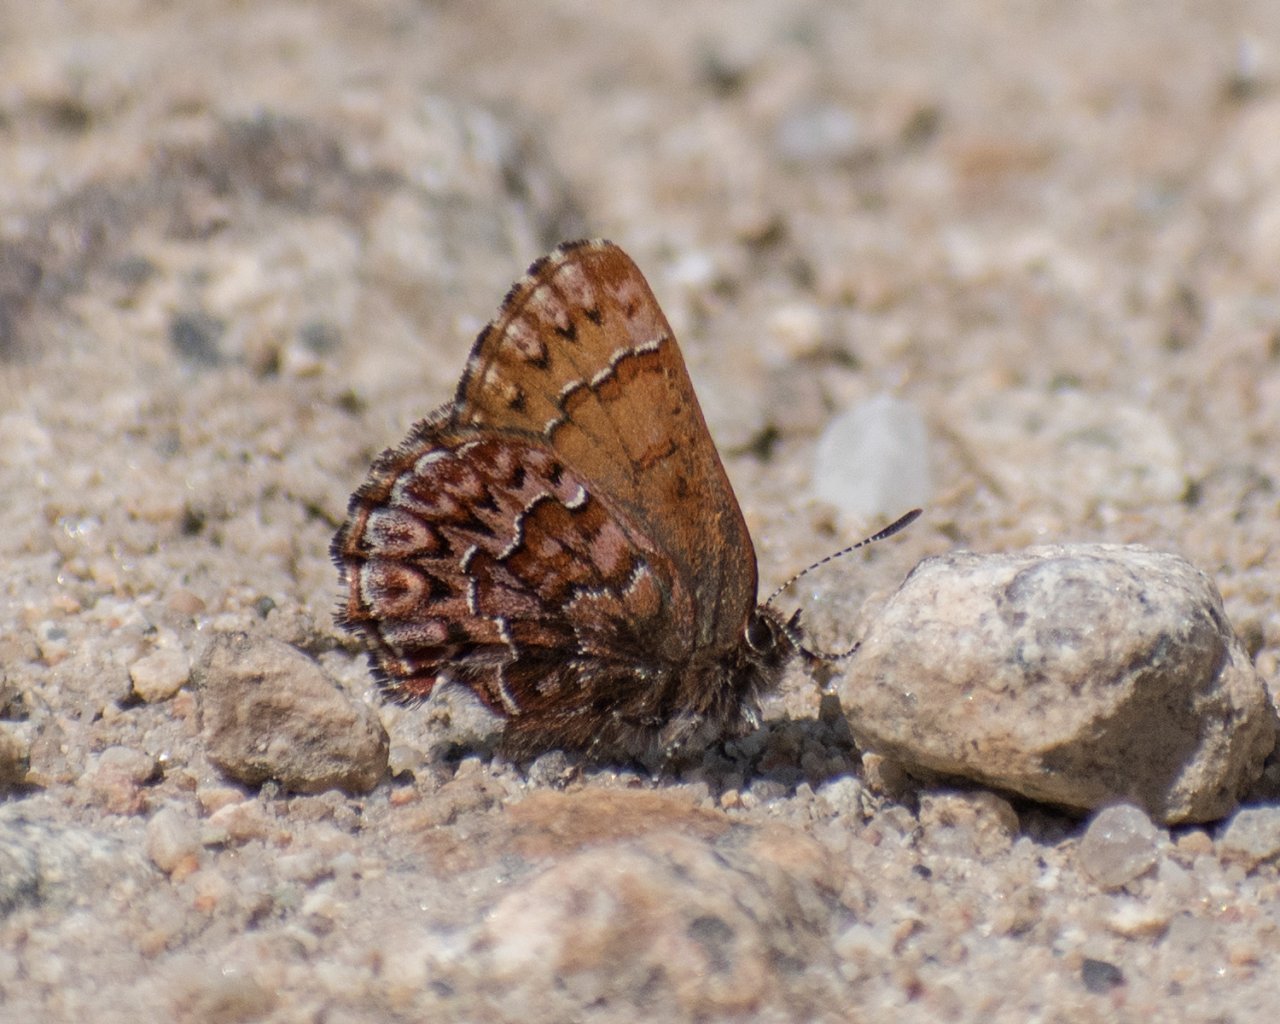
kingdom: Animalia
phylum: Arthropoda
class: Insecta
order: Lepidoptera
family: Lycaenidae
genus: Incisalia
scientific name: Incisalia eryphon
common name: Western Pine Elfin
